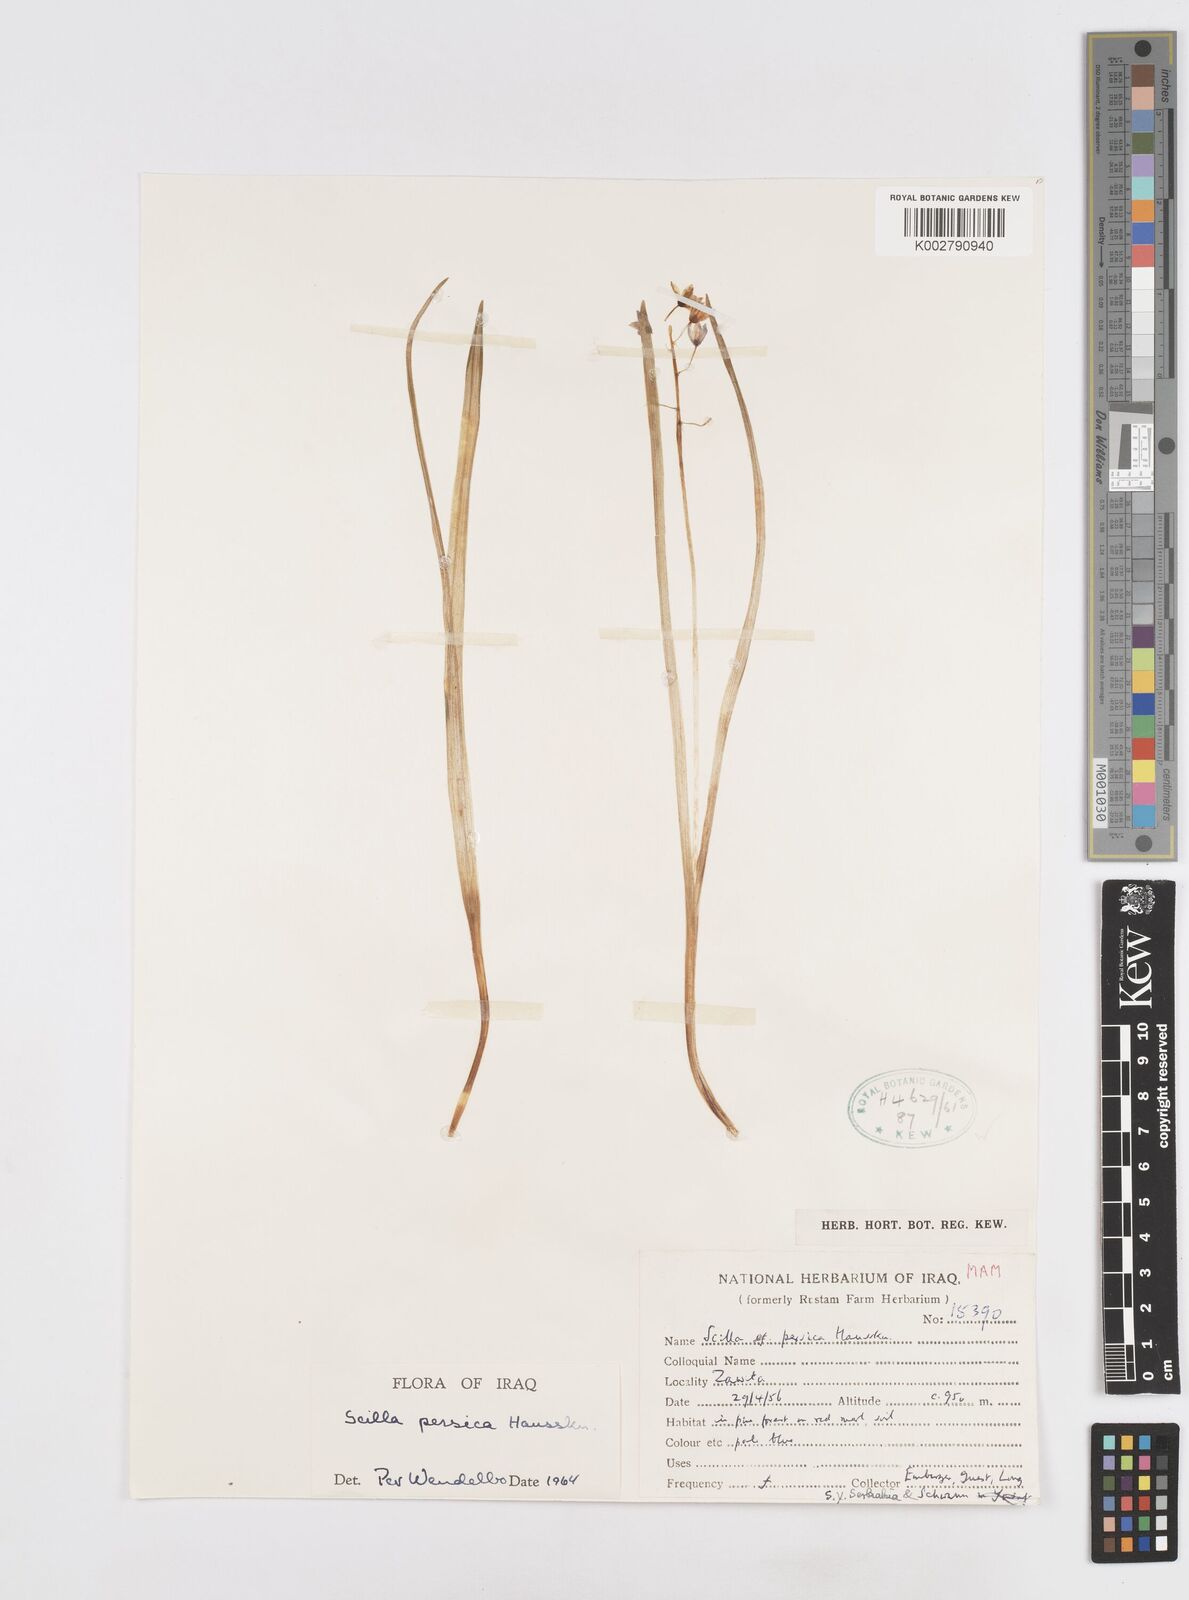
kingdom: Plantae
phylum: Tracheophyta
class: Liliopsida
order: Asparagales
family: Asparagaceae
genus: Zagrosia
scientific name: Zagrosia persica
